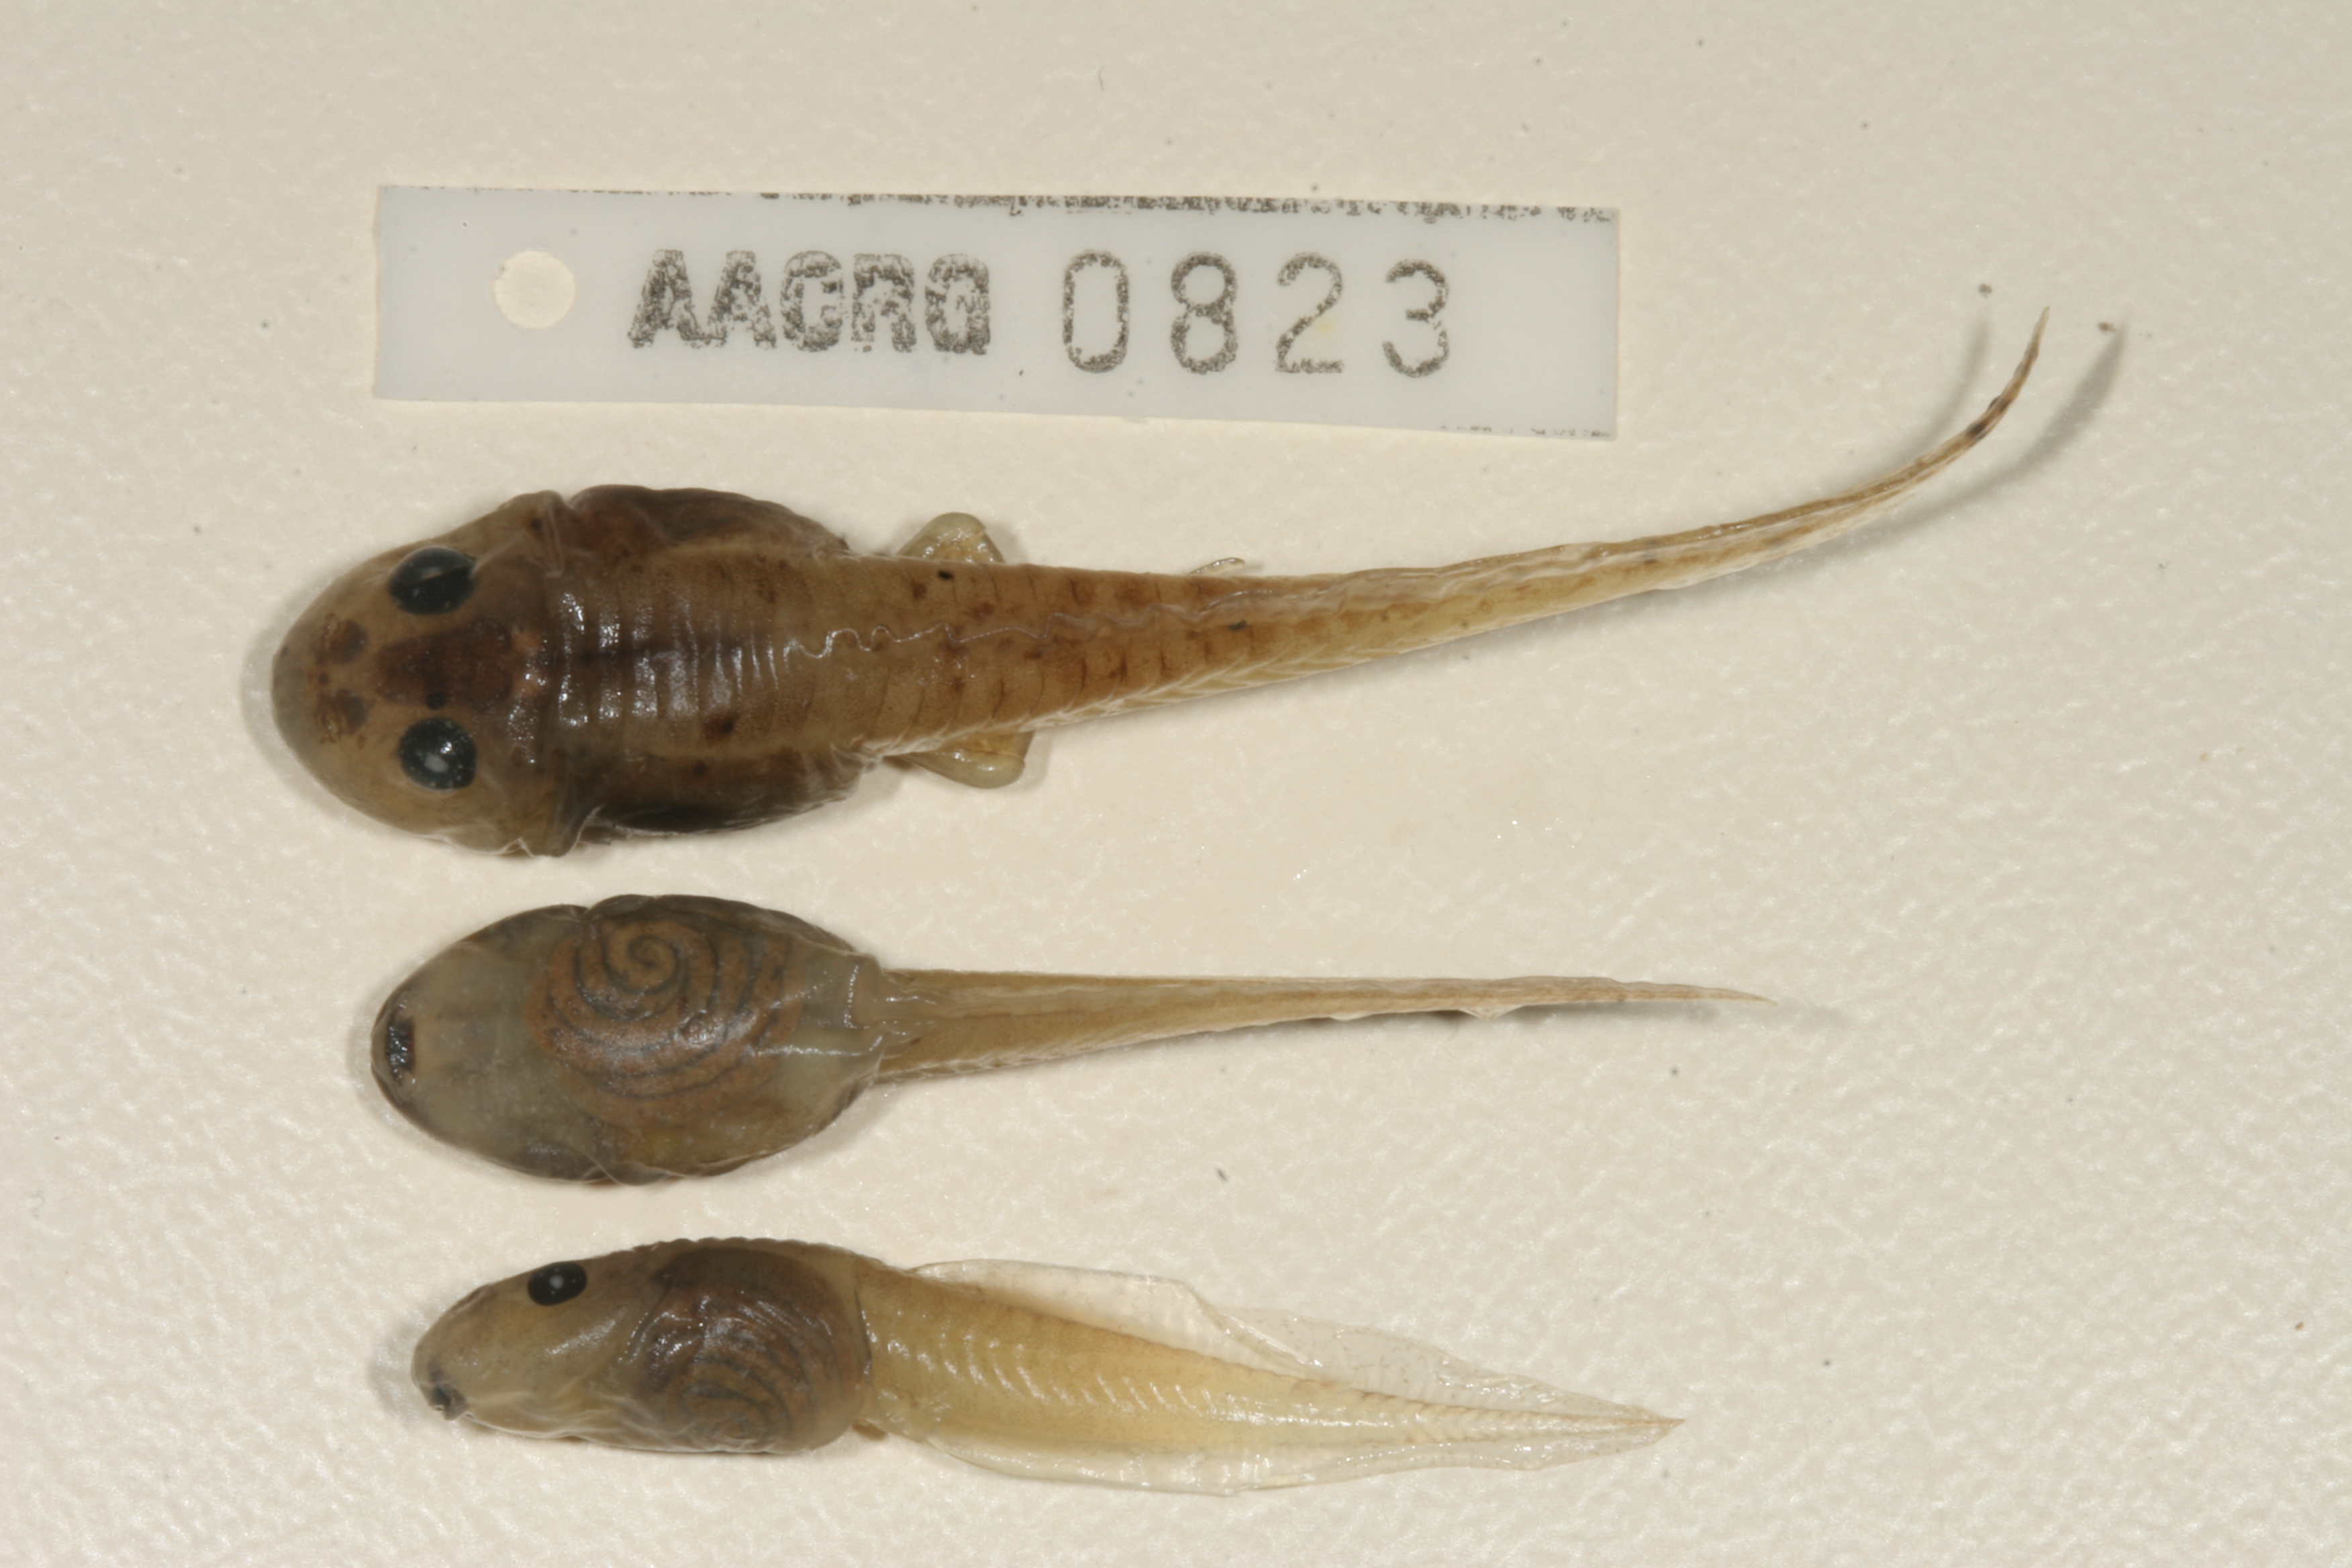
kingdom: Animalia
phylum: Chordata
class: Amphibia
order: Anura
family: Pyxicephalidae
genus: Strongylopus
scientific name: Strongylopus grayii
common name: Gray's stream frog
